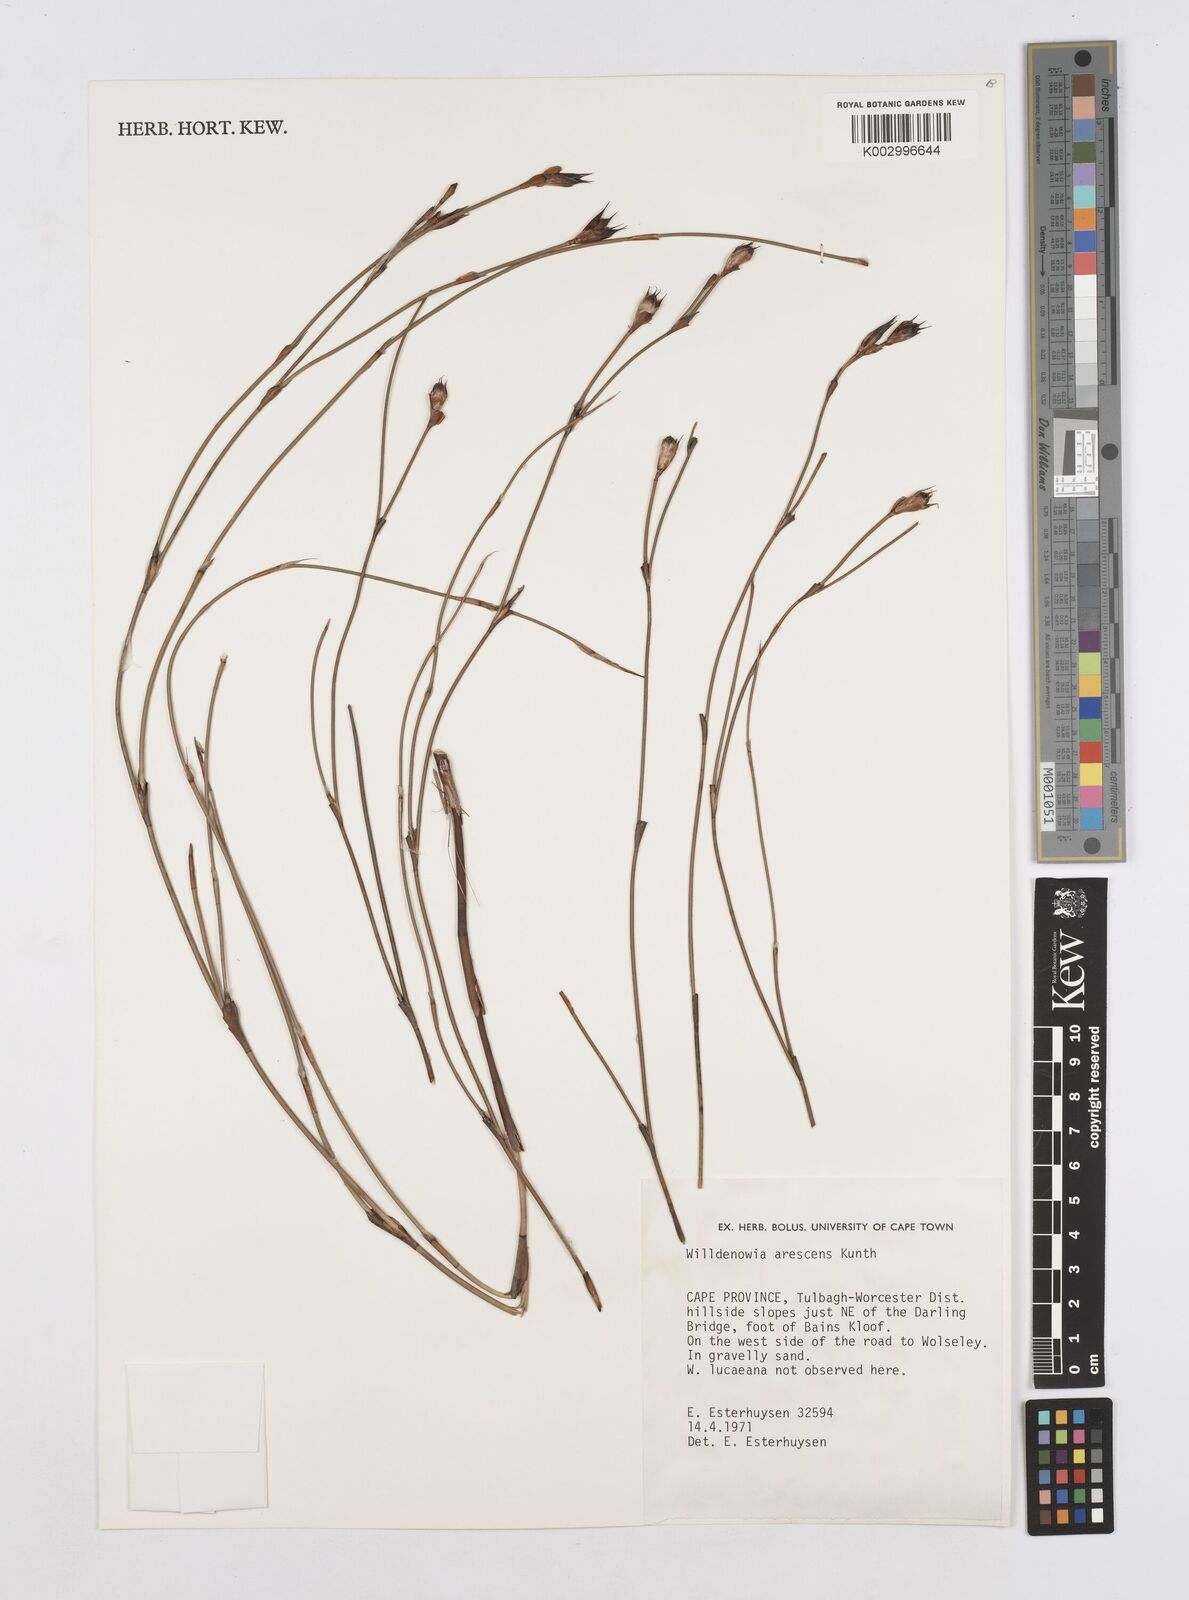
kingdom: Plantae
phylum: Tracheophyta
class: Liliopsida
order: Poales
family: Restionaceae
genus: Willdenowia
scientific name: Willdenowia arescens
